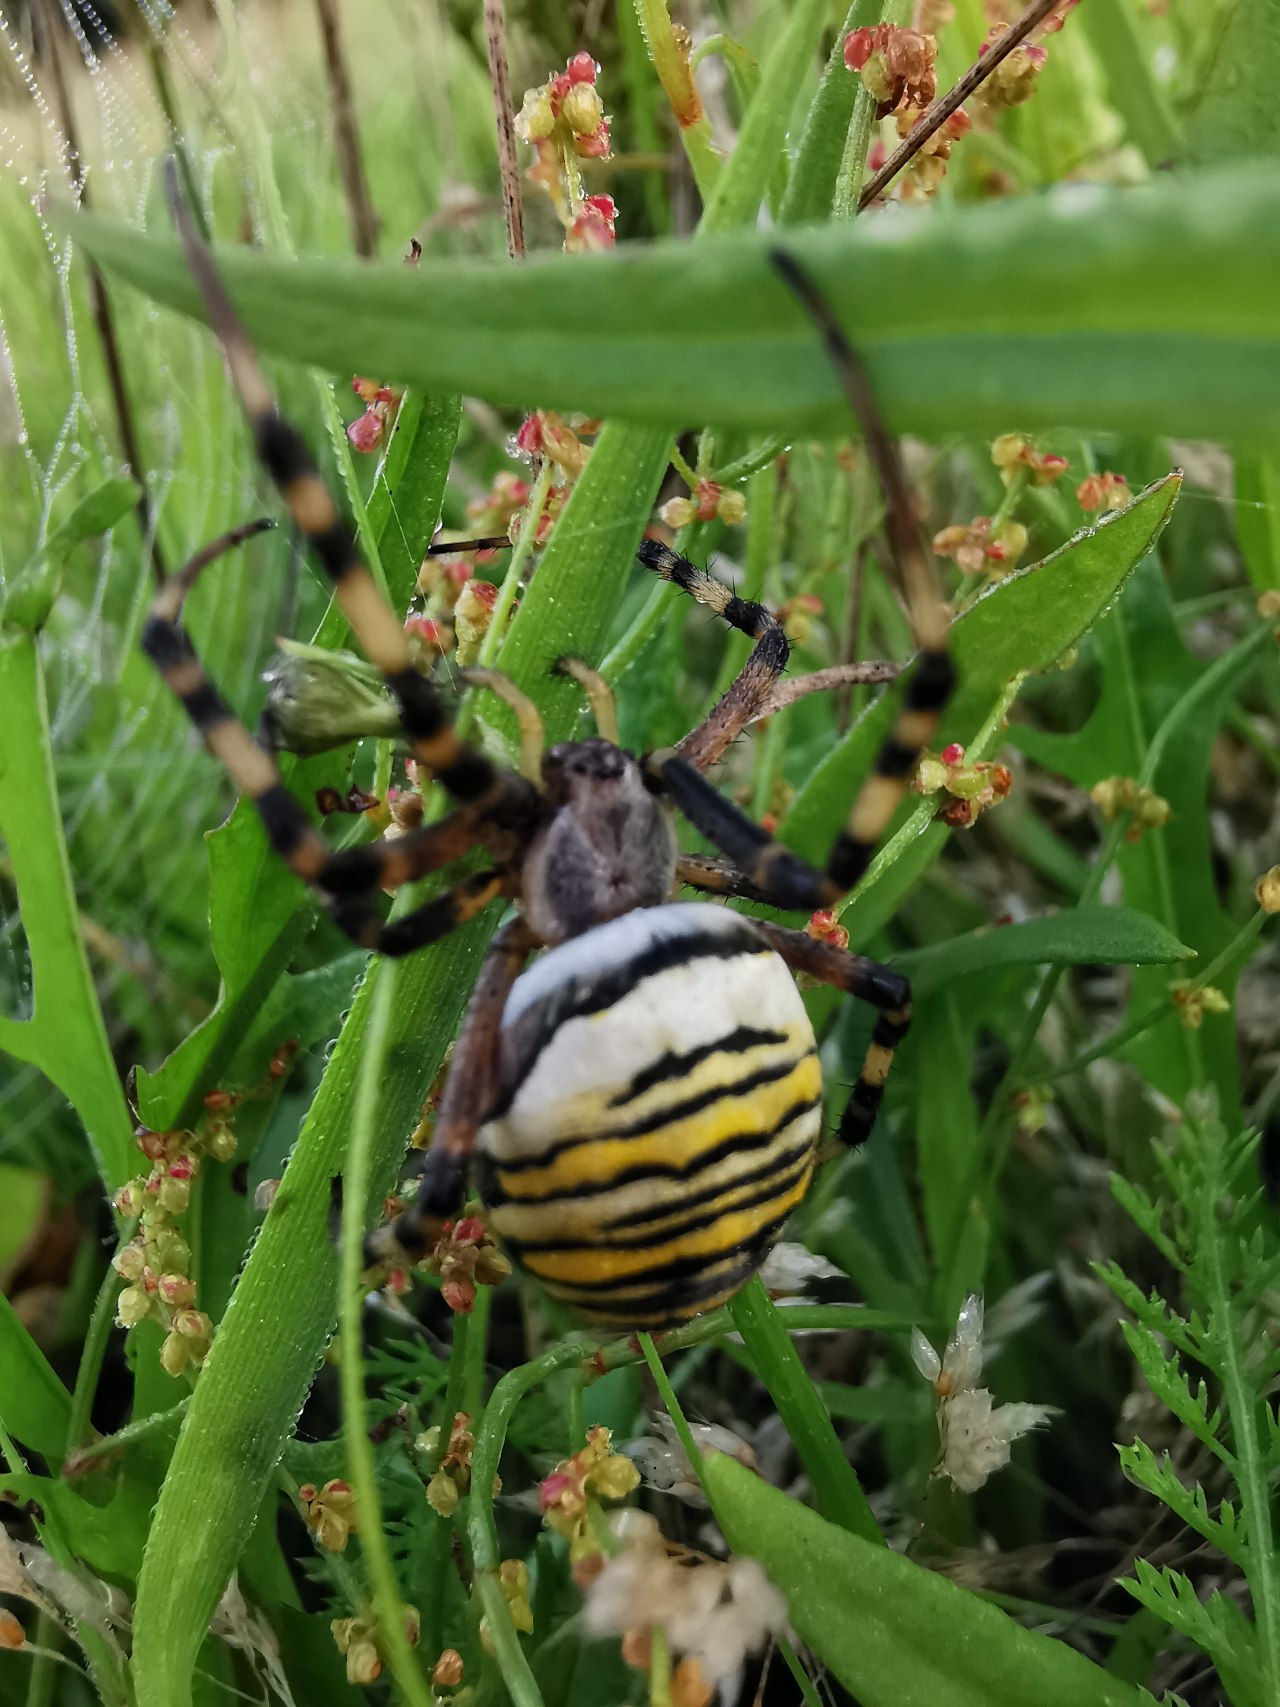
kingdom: Animalia
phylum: Arthropoda
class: Arachnida
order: Araneae
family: Araneidae
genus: Argiope
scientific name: Argiope bruennichi
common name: Hvepseedderkop
